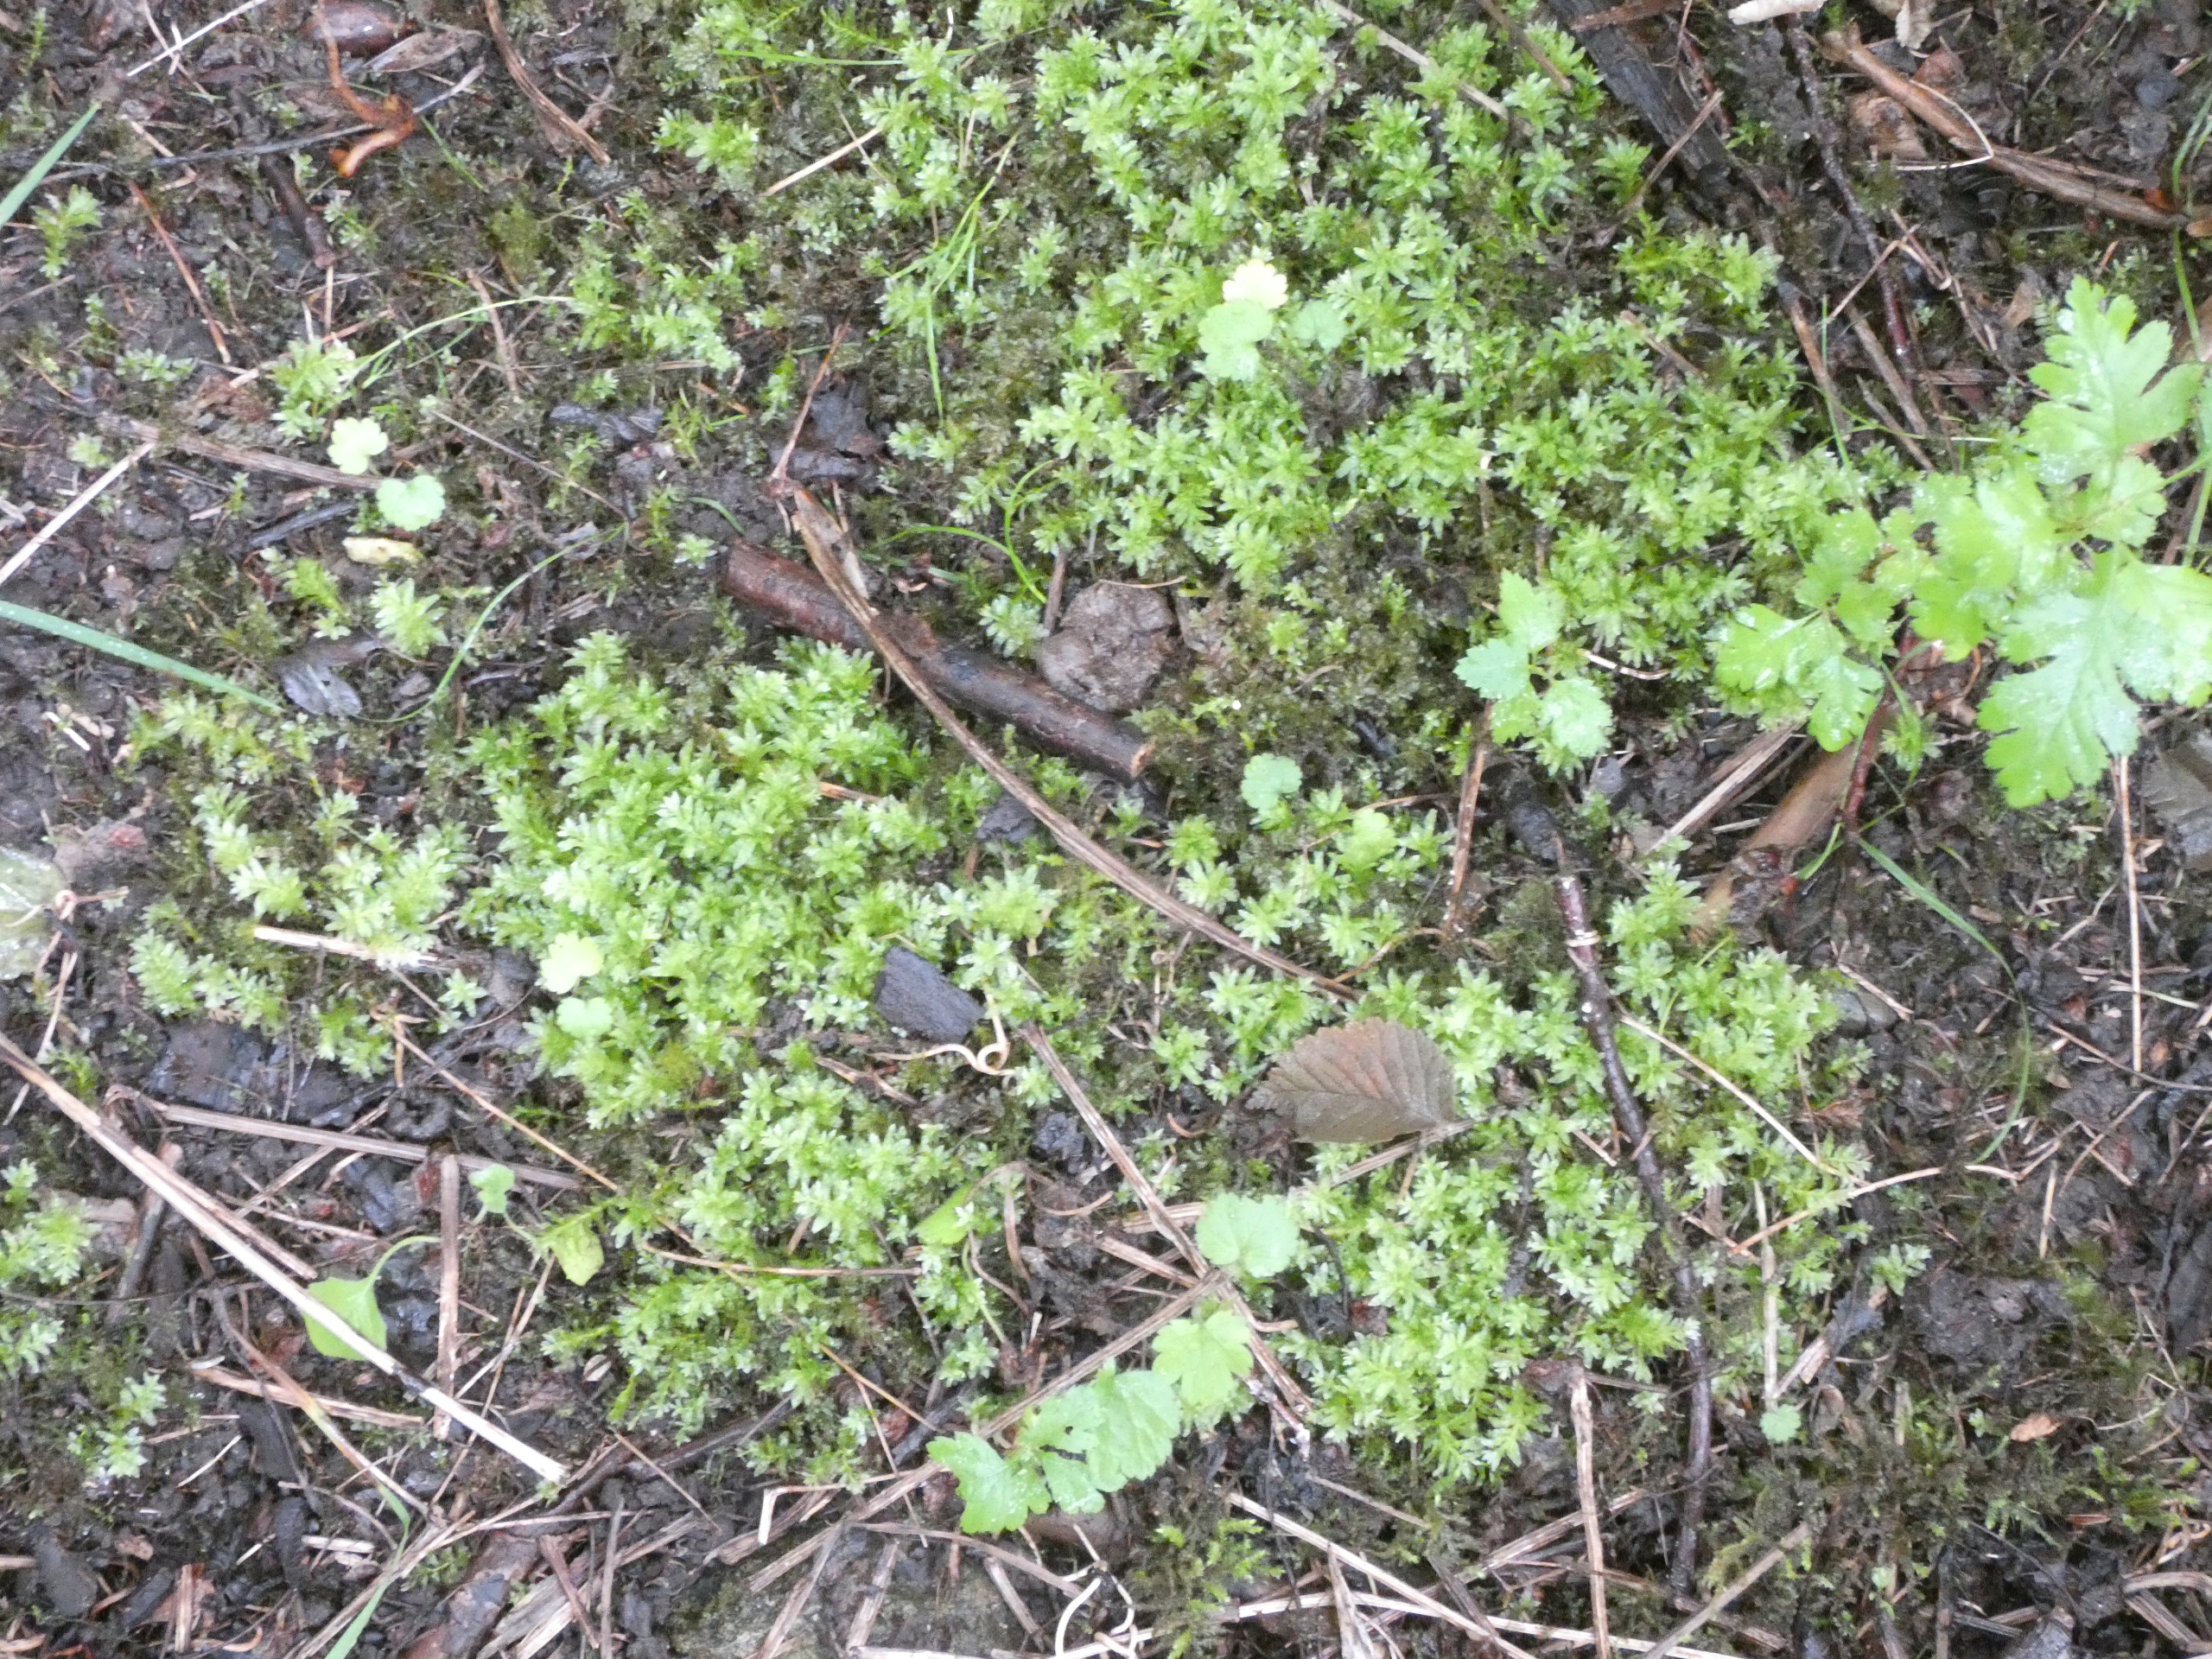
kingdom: Plantae
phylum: Bryophyta
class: Bryopsida
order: Bryales
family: Mniaceae
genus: Plagiomnium
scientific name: Plagiomnium undulatum
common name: Bølget krybstjerne
